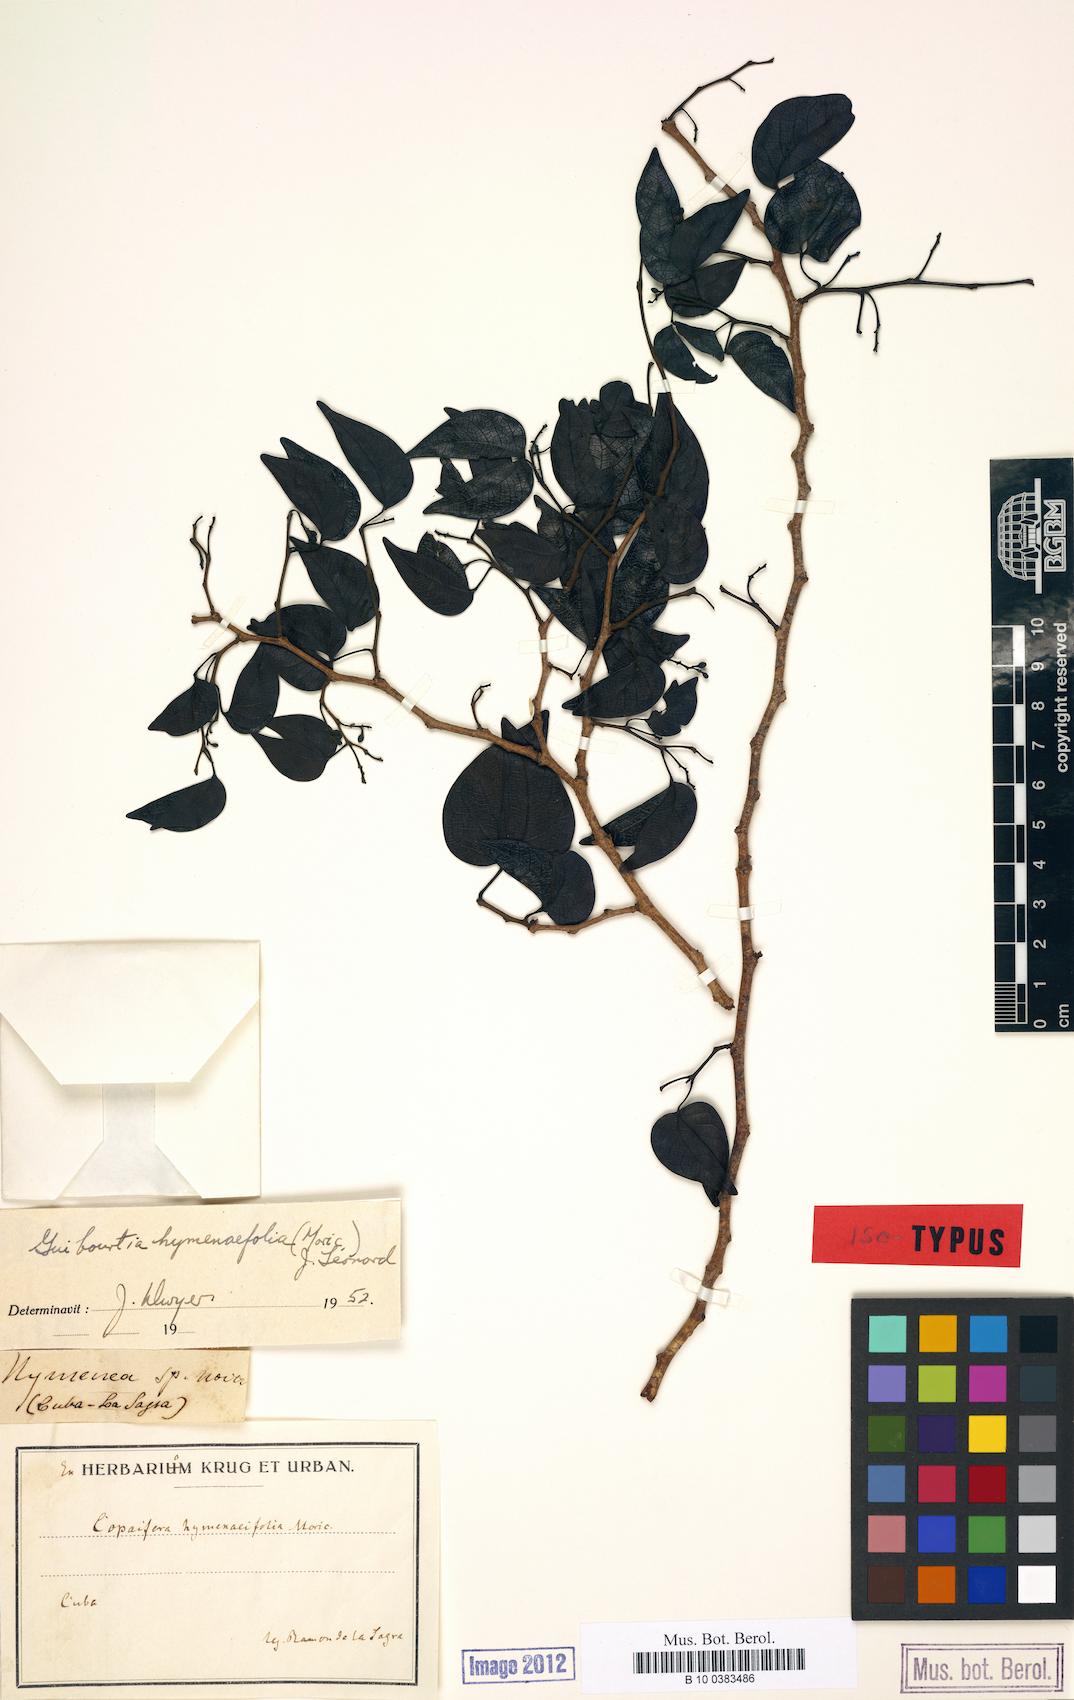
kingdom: Plantae
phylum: Tracheophyta
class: Magnoliopsida
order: Fabales
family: Fabaceae
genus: Guibourtia
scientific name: Guibourtia hymenifolia
